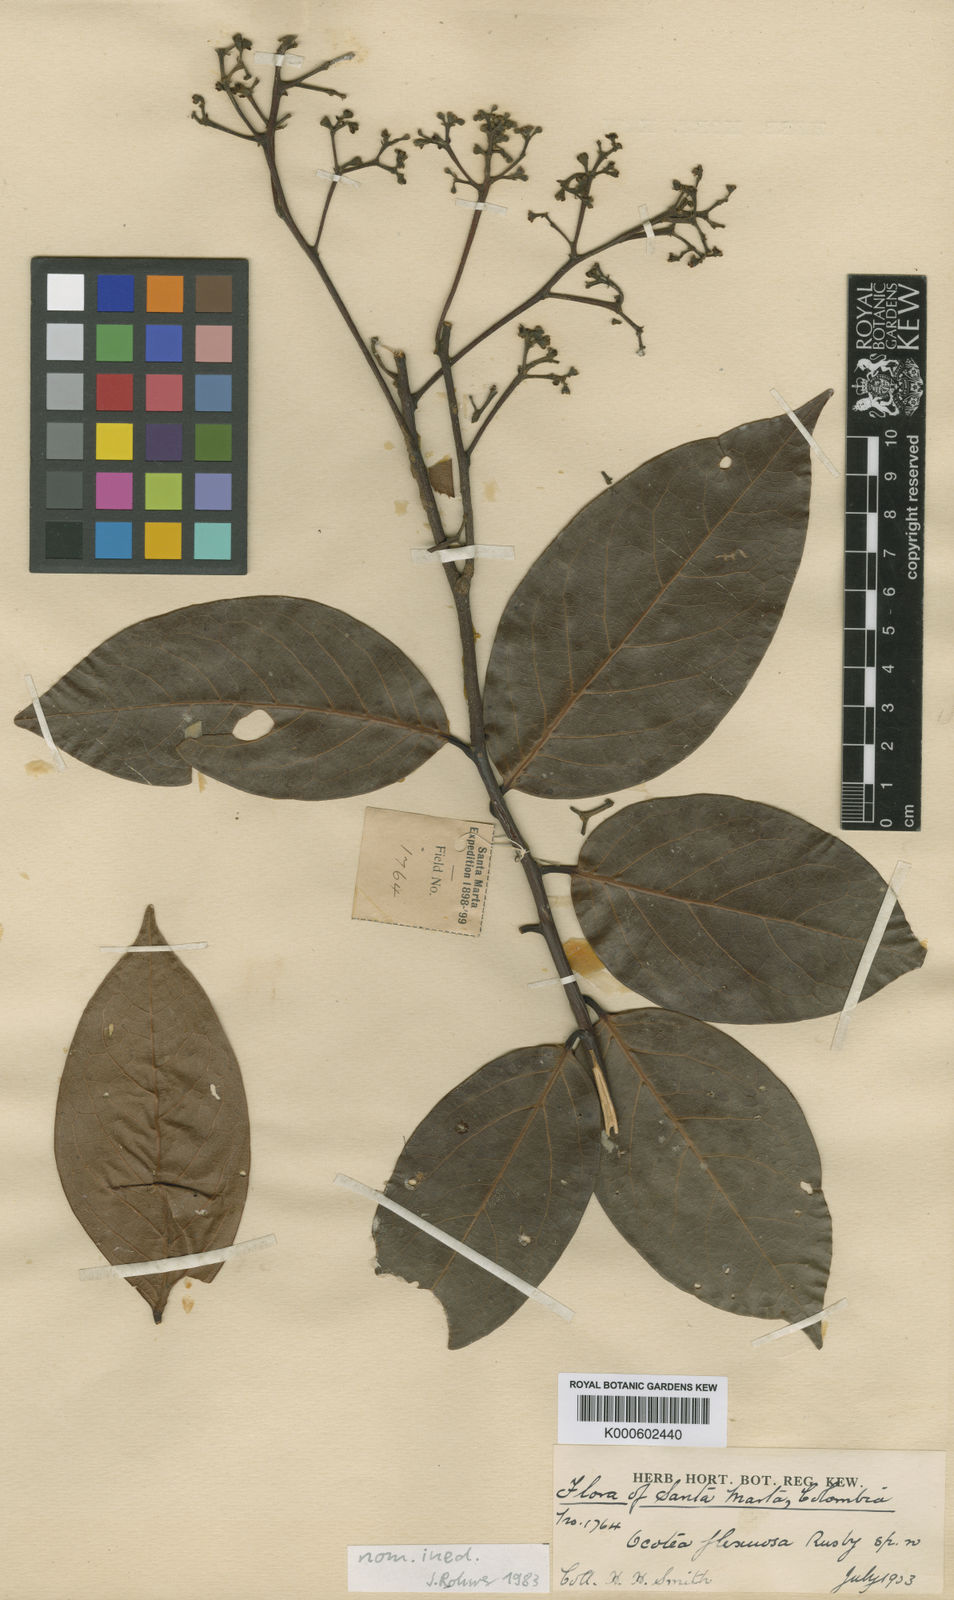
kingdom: Plantae
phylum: Tracheophyta
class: Magnoliopsida
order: Laurales
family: Lauraceae
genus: Damburneya
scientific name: Damburneya purpurea
